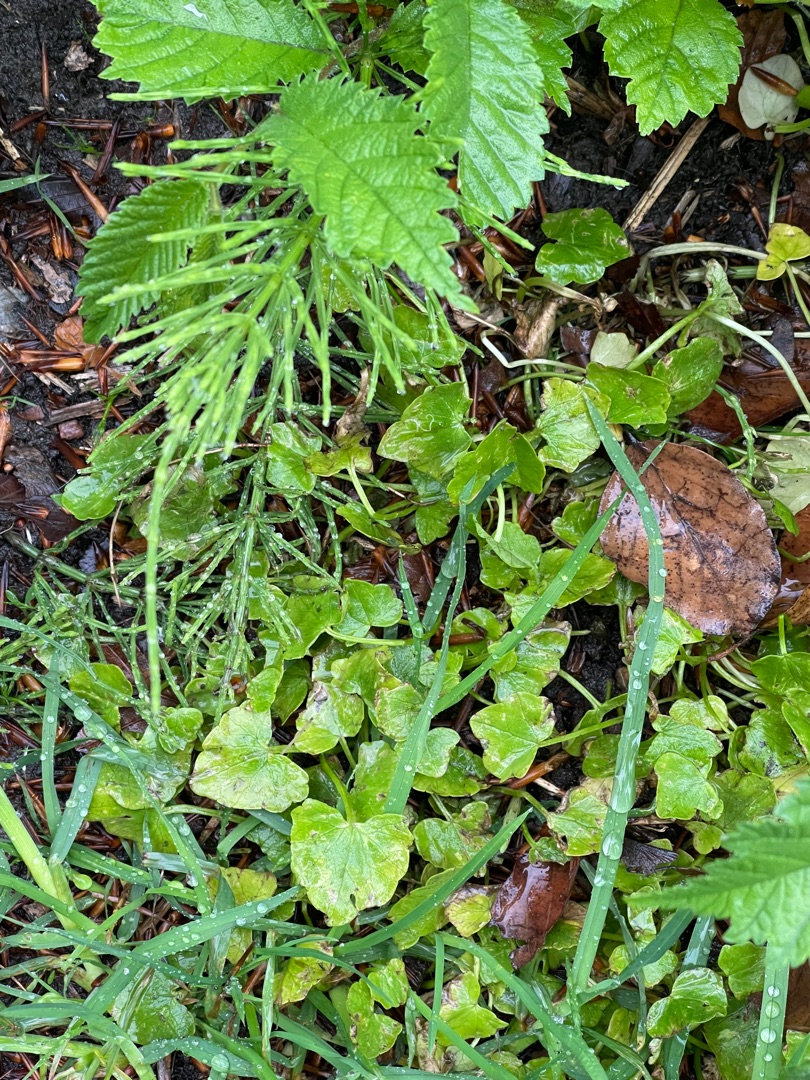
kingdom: Plantae
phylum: Tracheophyta
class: Magnoliopsida
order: Ranunculales
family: Ranunculaceae
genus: Ficaria
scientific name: Ficaria verna
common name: Vorterod
